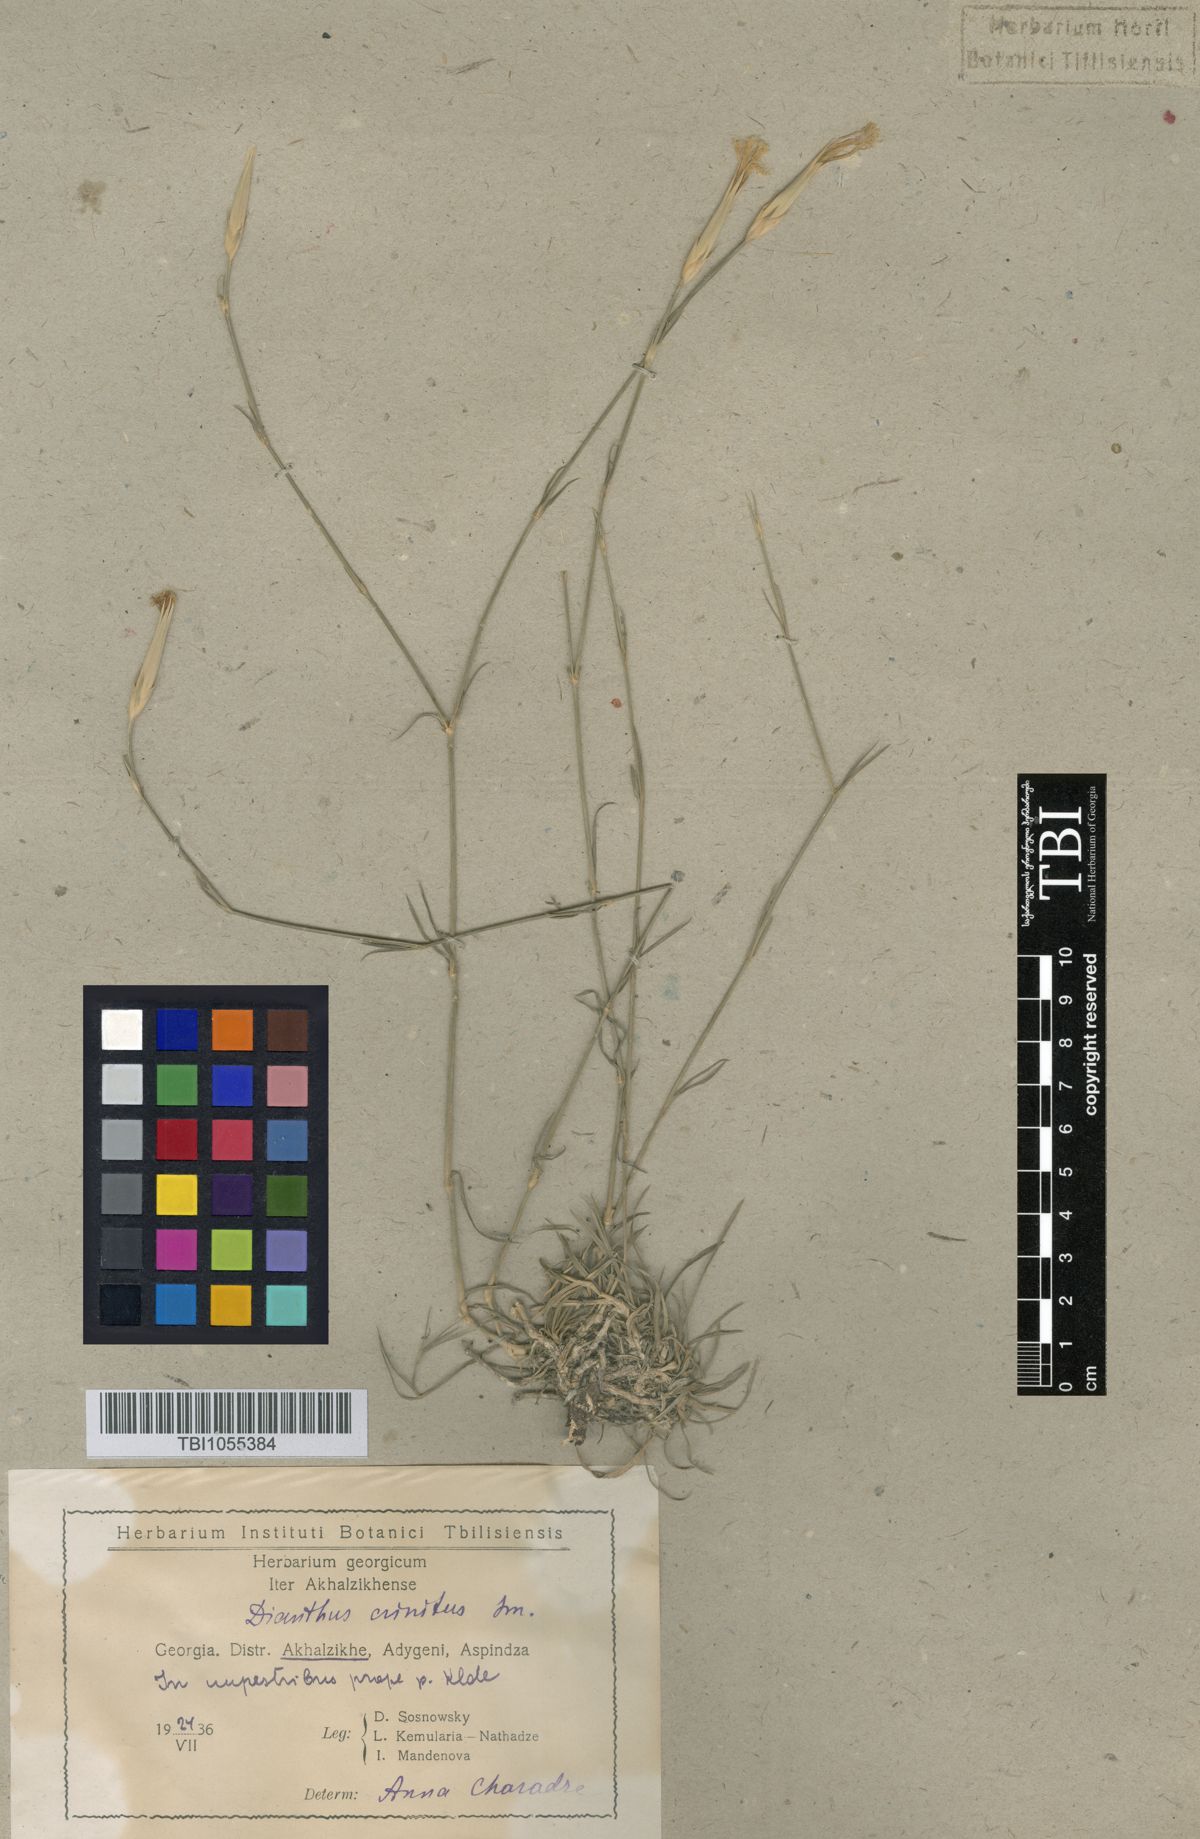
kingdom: Plantae
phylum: Tracheophyta
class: Magnoliopsida
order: Caryophyllales
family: Caryophyllaceae
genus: Dianthus
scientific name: Dianthus crinitus
